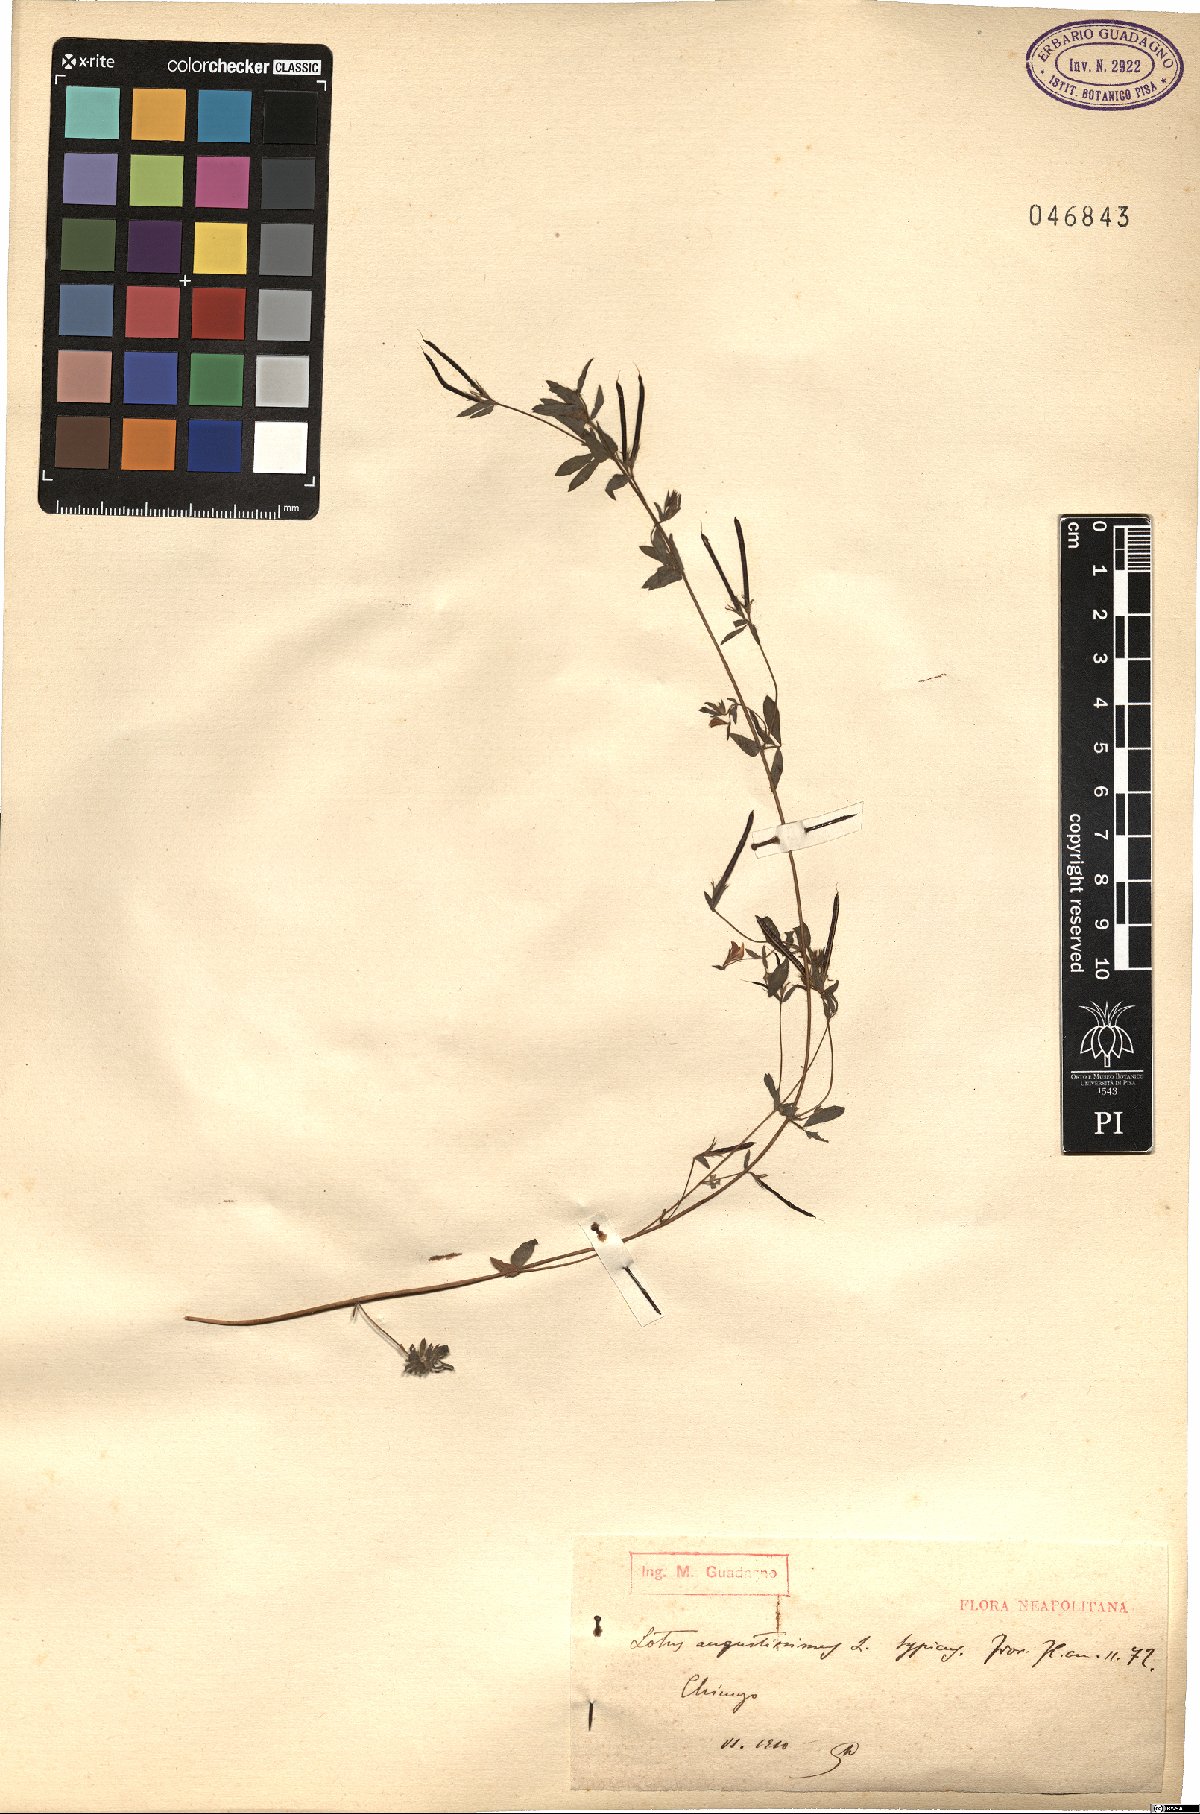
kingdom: Plantae
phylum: Tracheophyta
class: Magnoliopsida
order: Fabales
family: Fabaceae
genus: Lotus
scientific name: Lotus angustissimus
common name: Slender bird's-foot trefoil
